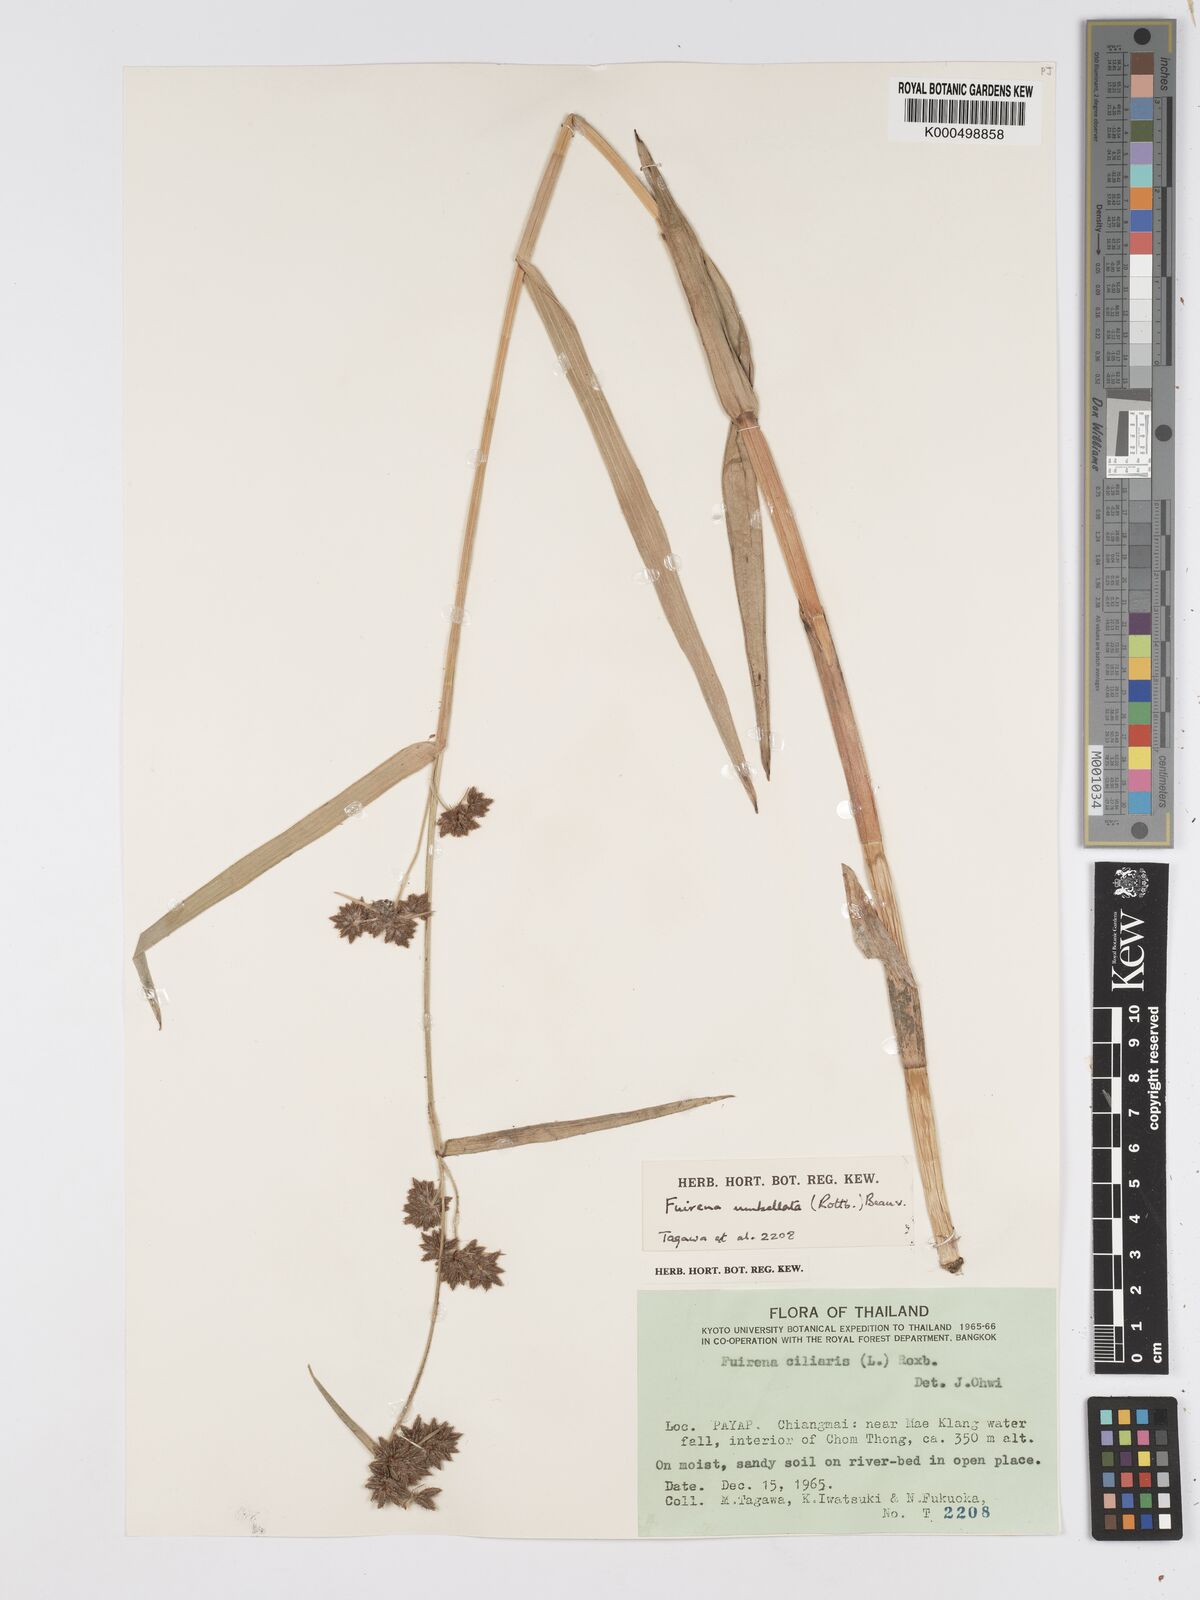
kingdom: Plantae
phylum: Tracheophyta
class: Liliopsida
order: Poales
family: Cyperaceae
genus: Fuirena
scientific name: Fuirena umbellata
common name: Yefen
